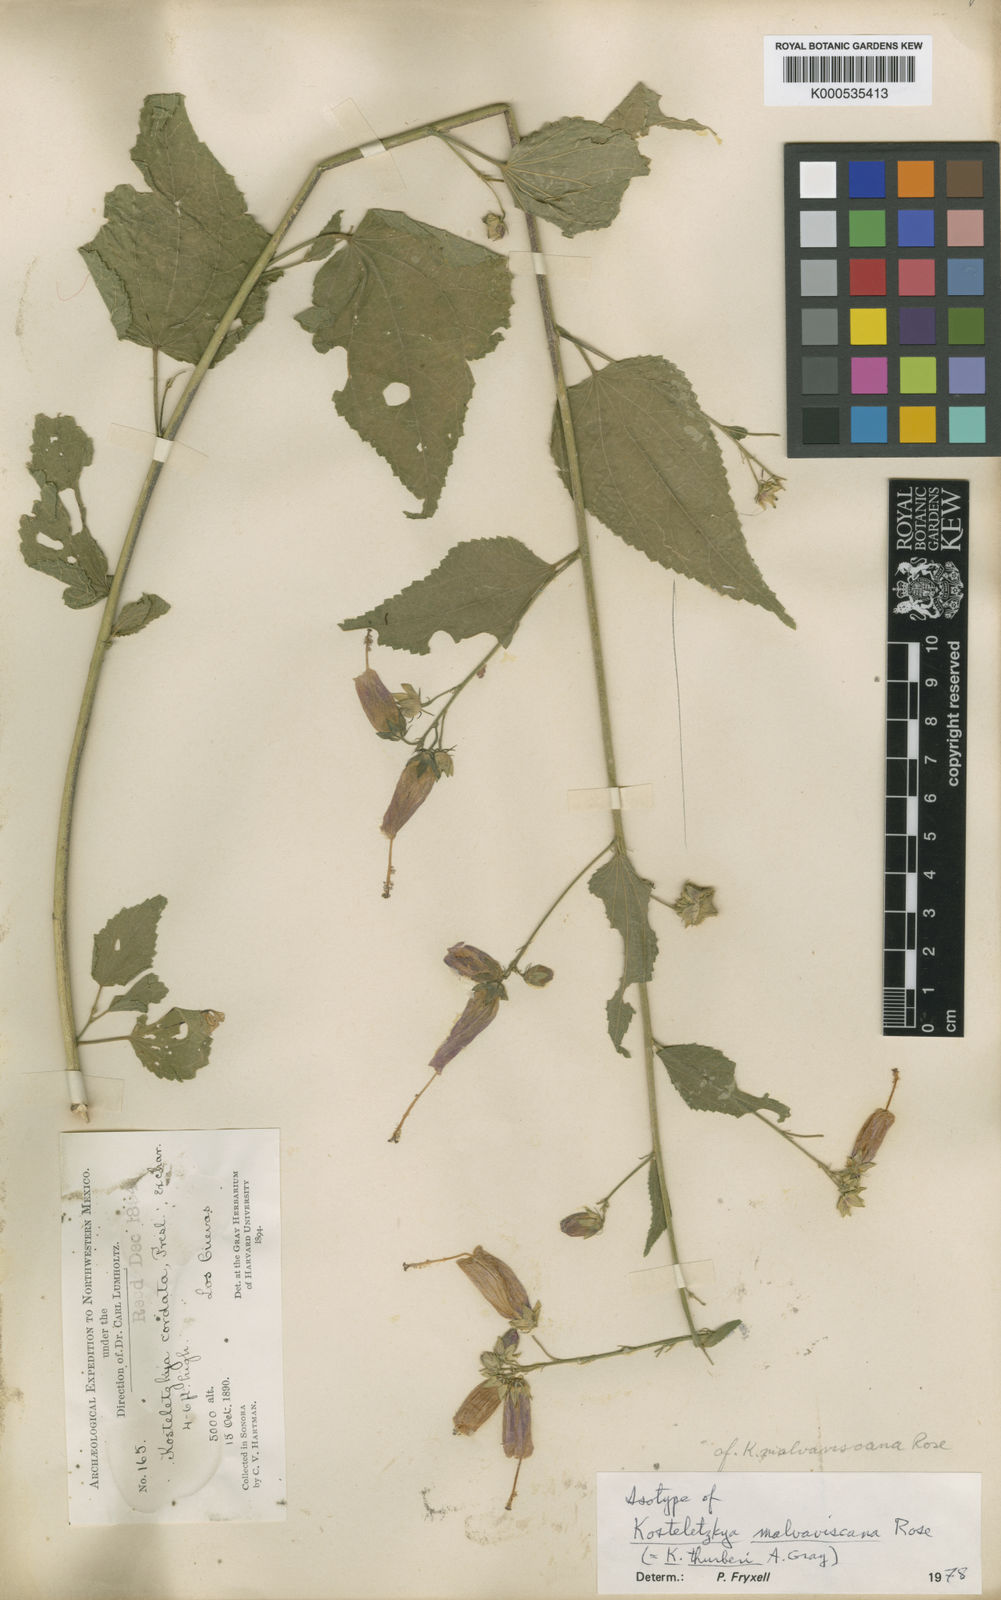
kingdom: Plantae
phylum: Tracheophyta
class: Magnoliopsida
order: Malvales
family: Malvaceae
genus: Kosteletzkya
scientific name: Kosteletzkya thurberi
